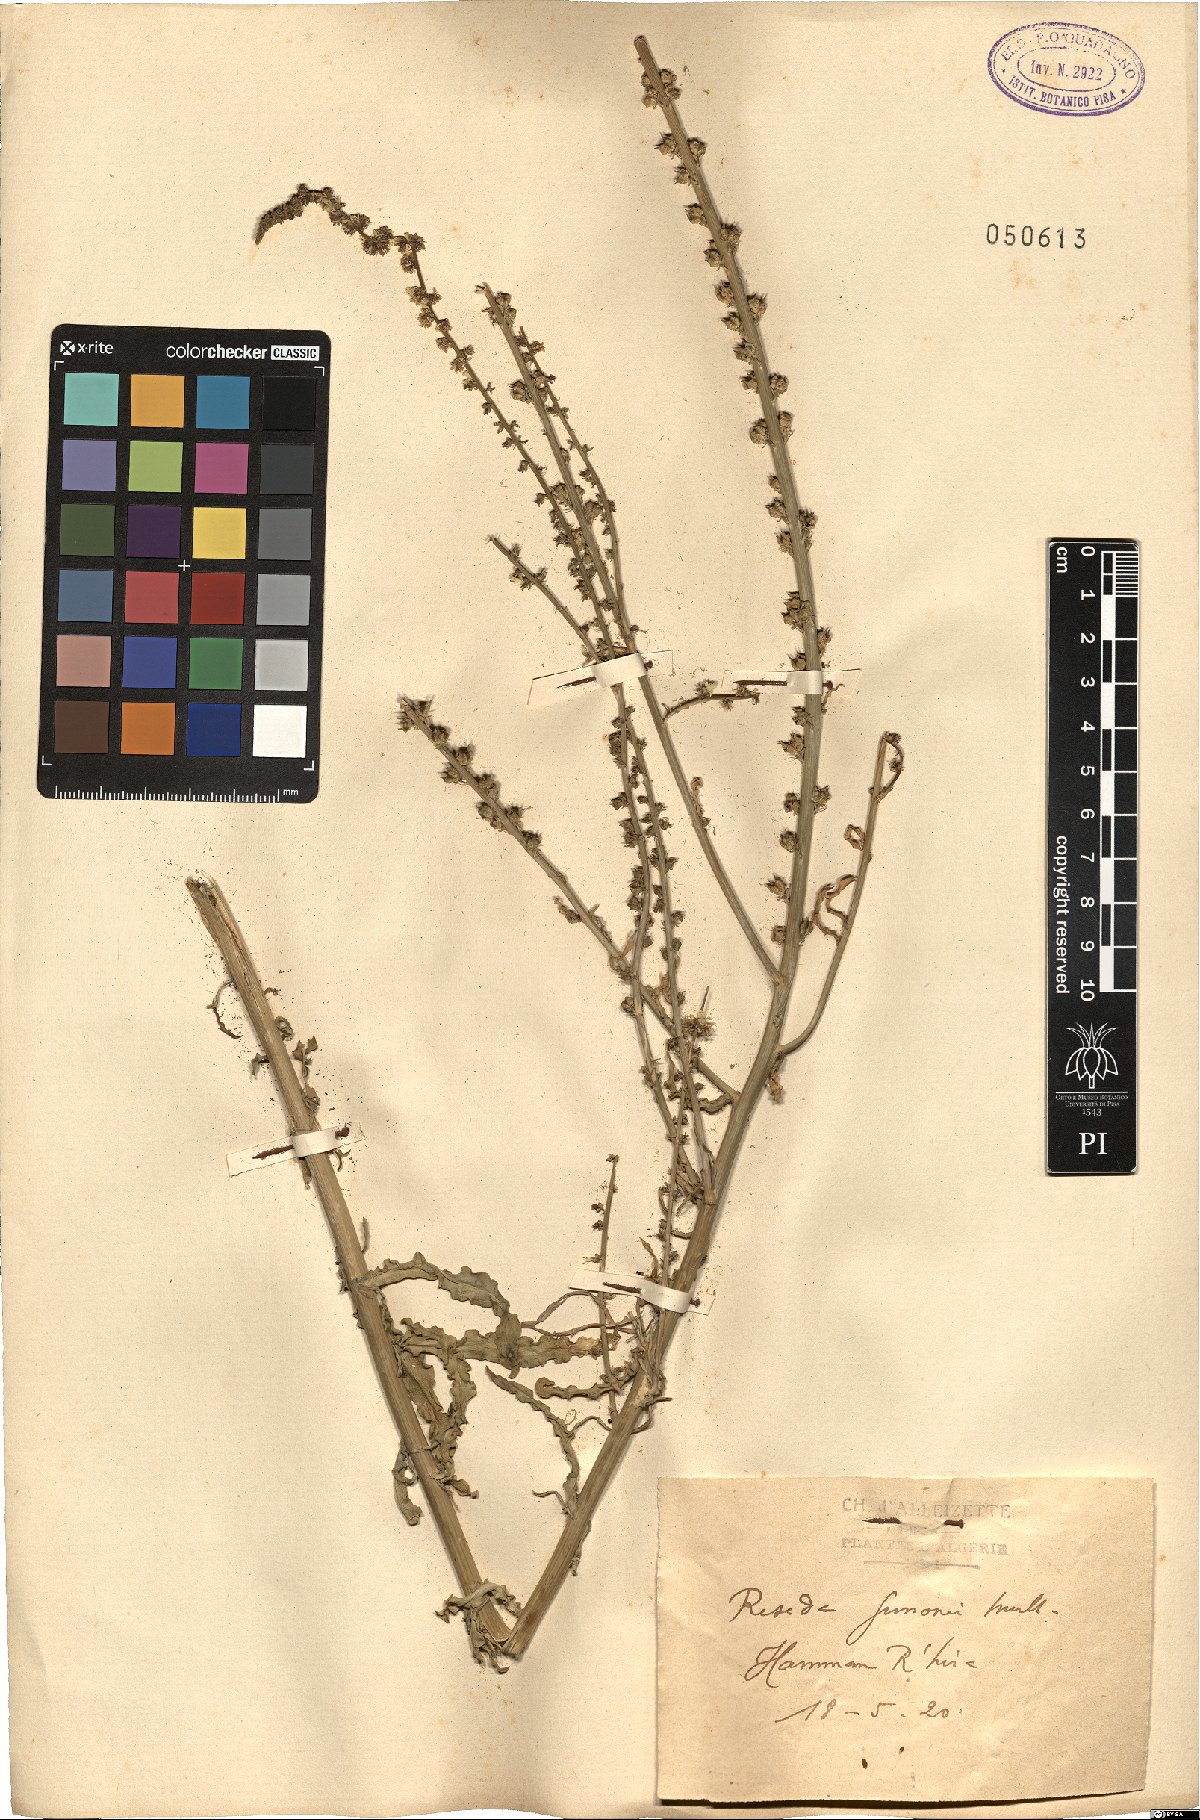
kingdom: Plantae
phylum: Tracheophyta
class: Magnoliopsida
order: Brassicales
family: Resedaceae
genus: Reseda
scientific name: Reseda luteola
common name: Weld
